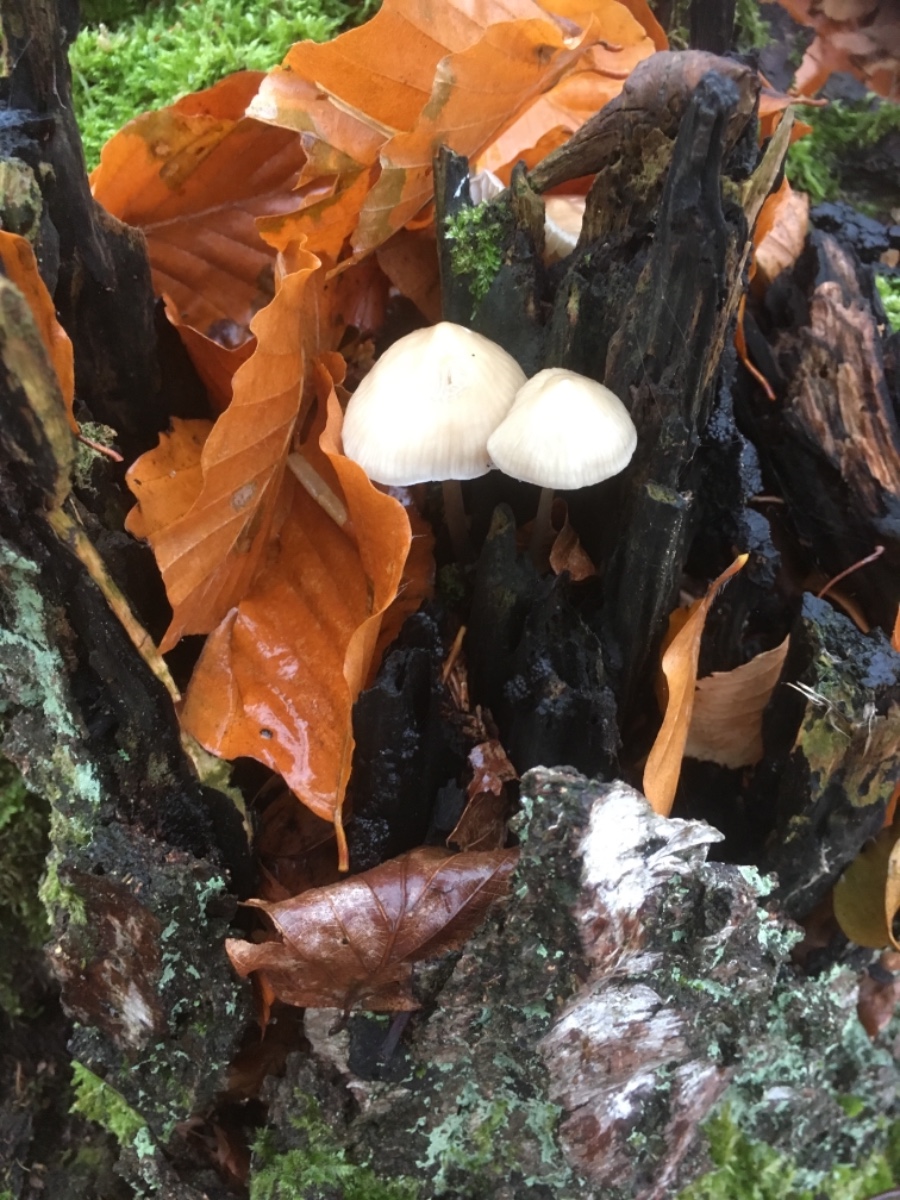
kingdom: Fungi
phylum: Basidiomycota
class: Agaricomycetes
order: Agaricales
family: Mycenaceae
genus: Mycena
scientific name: Mycena galericulata
